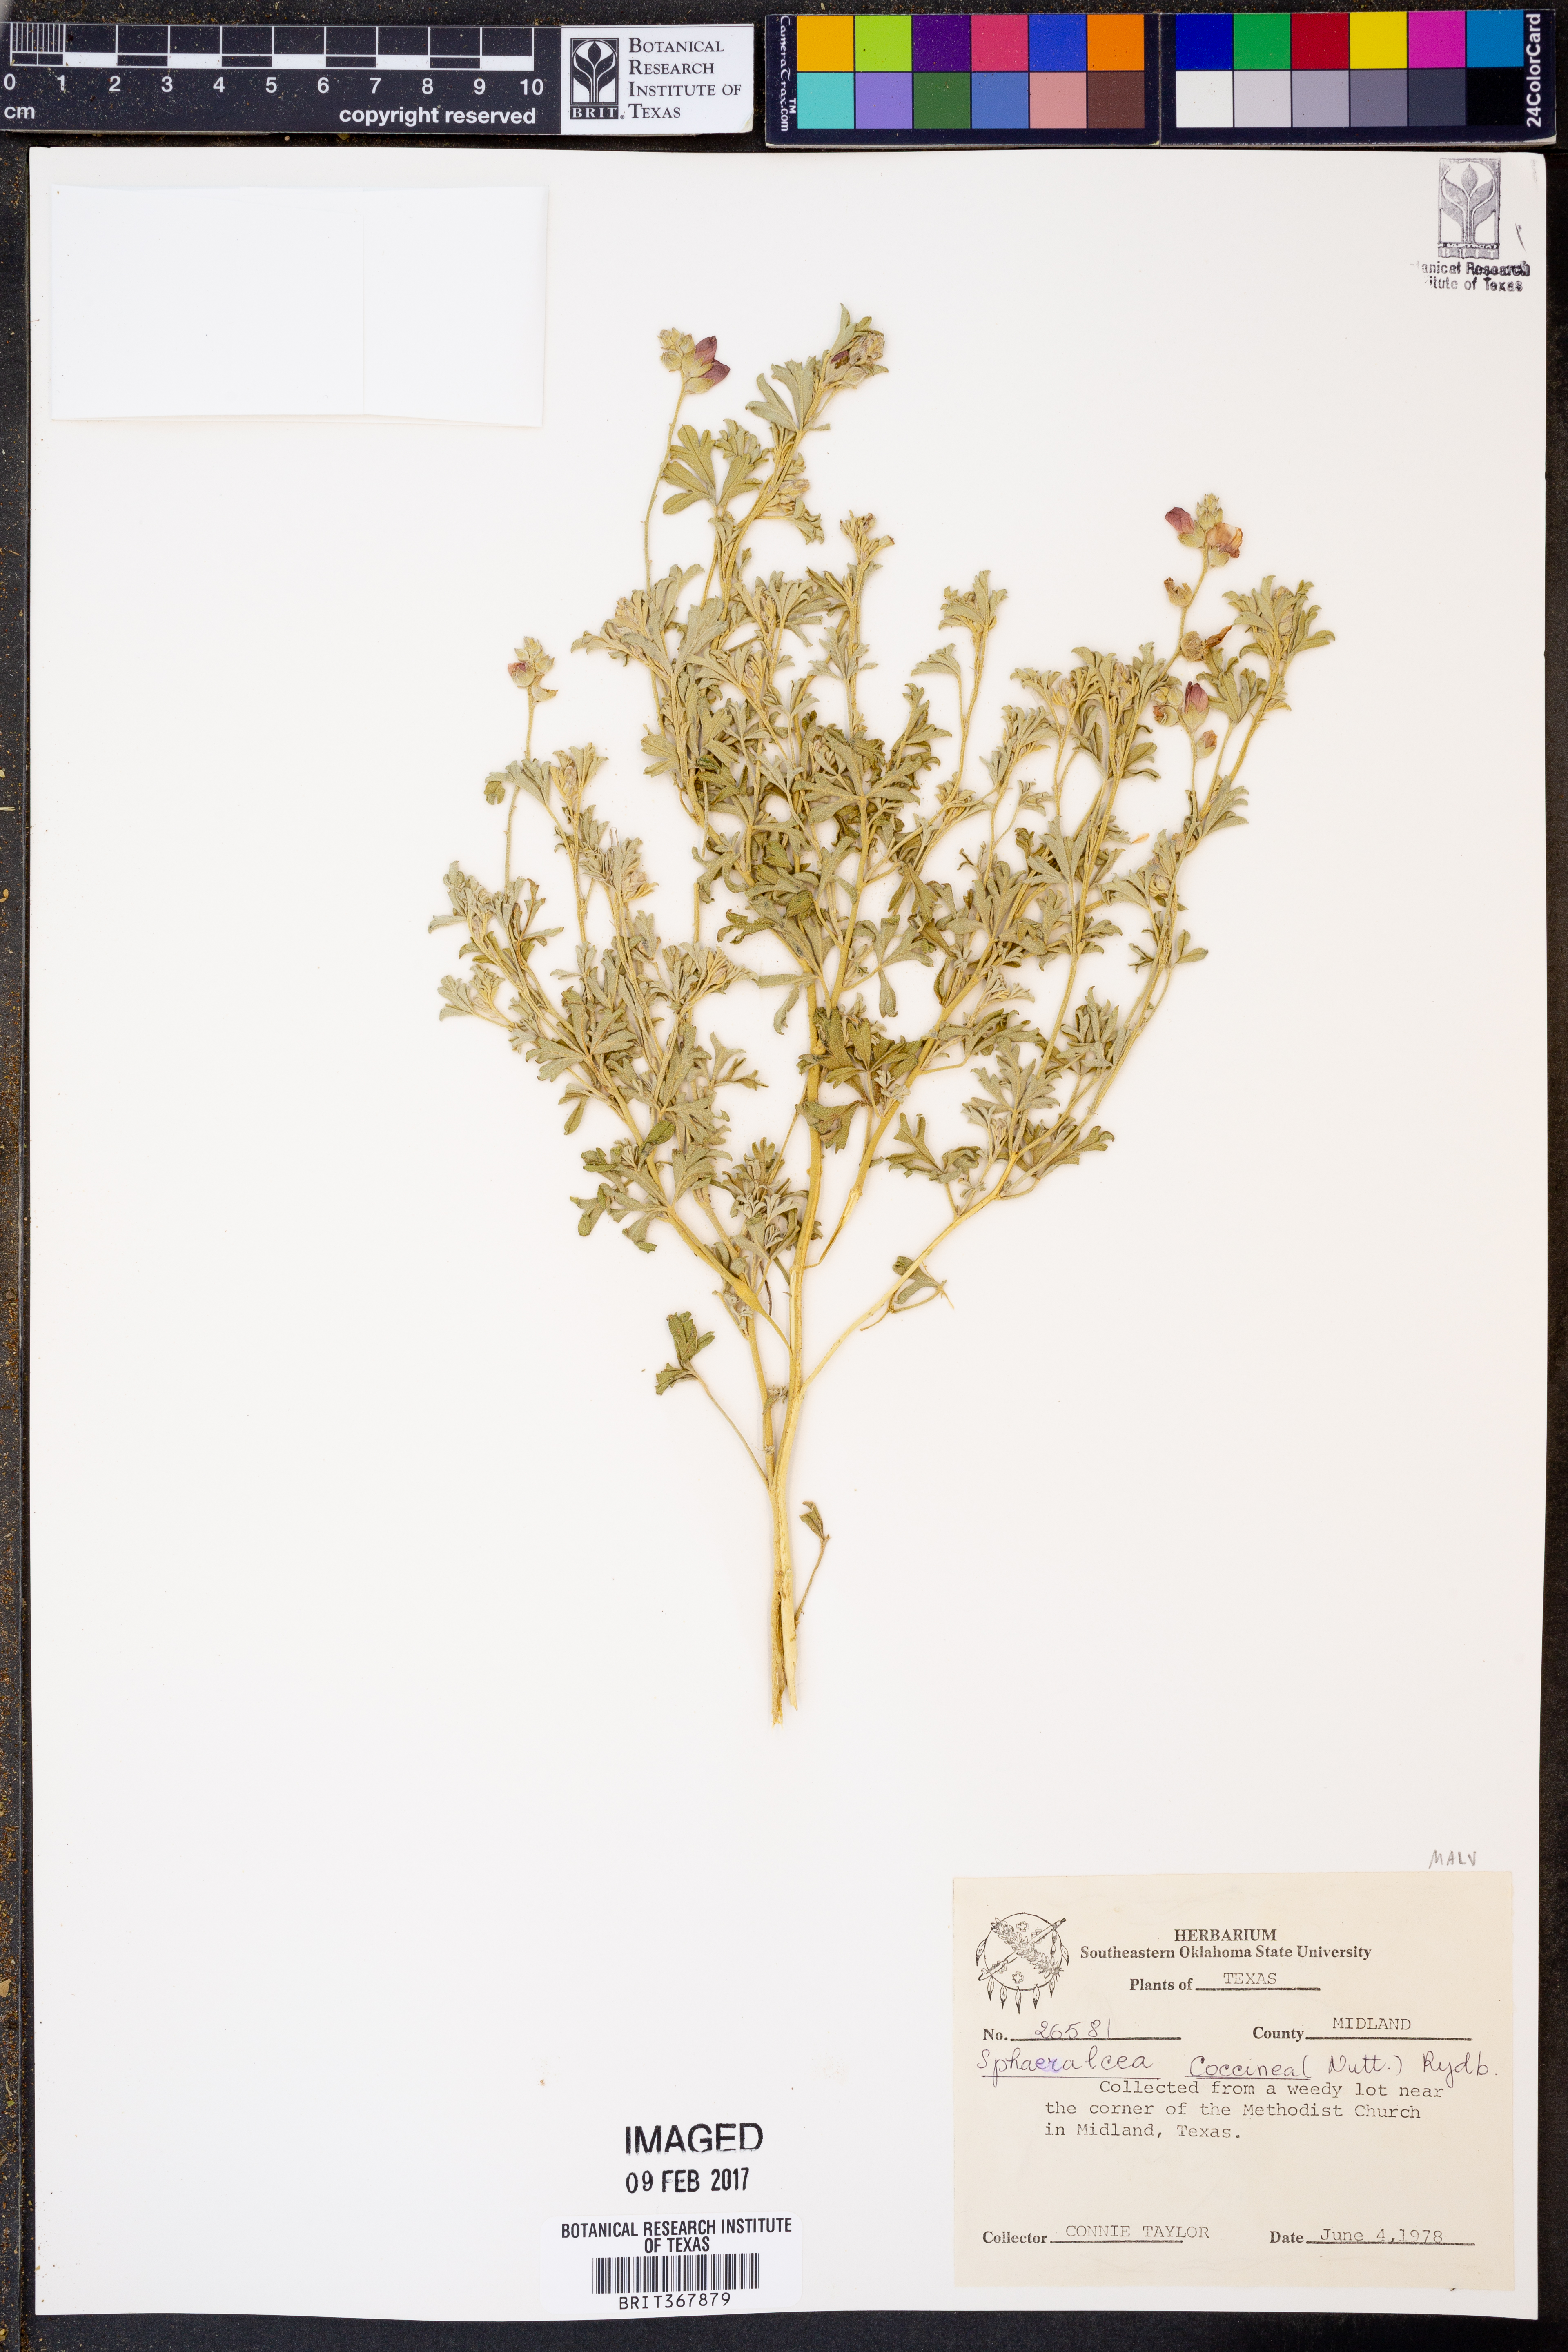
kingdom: Plantae
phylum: Tracheophyta
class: Magnoliopsida
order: Malvales
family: Malvaceae
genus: Sphaeralcea
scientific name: Sphaeralcea coccinea
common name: Moss-rose
